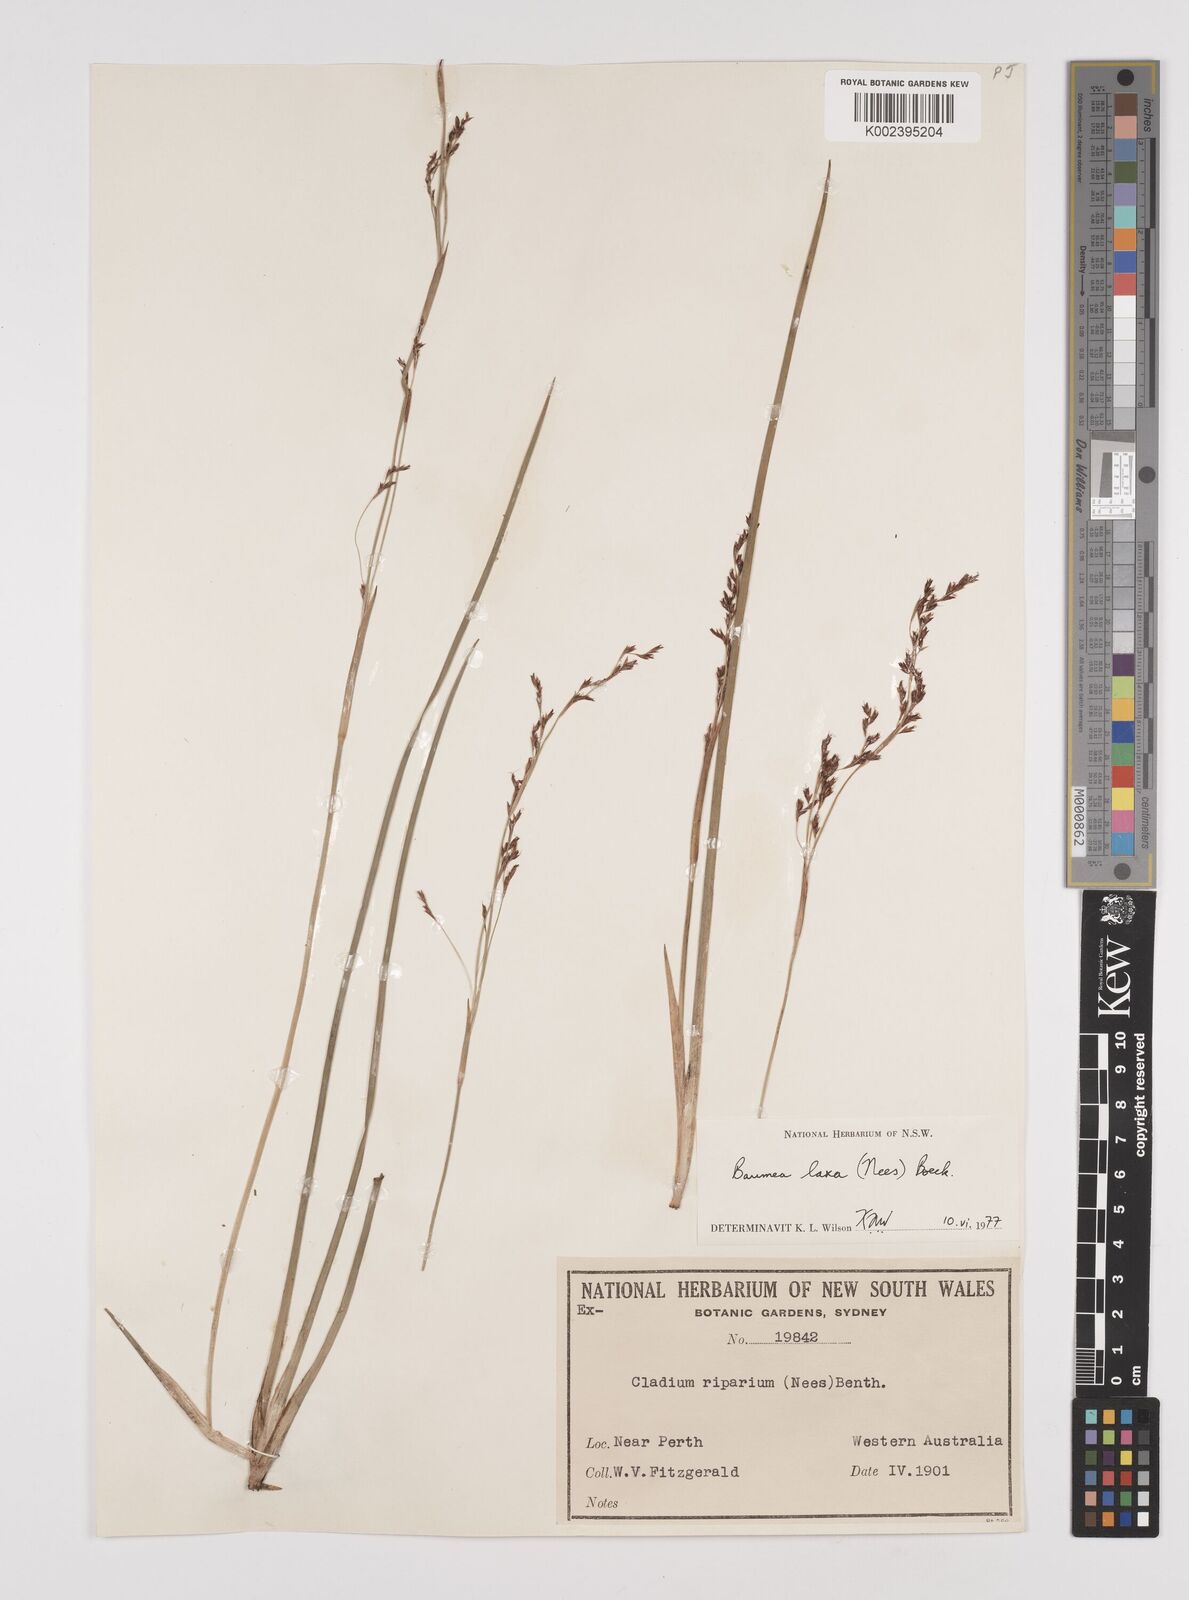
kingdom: Plantae
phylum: Tracheophyta
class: Liliopsida
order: Poales
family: Cyperaceae
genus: Machaerina
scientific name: Machaerina laxa
